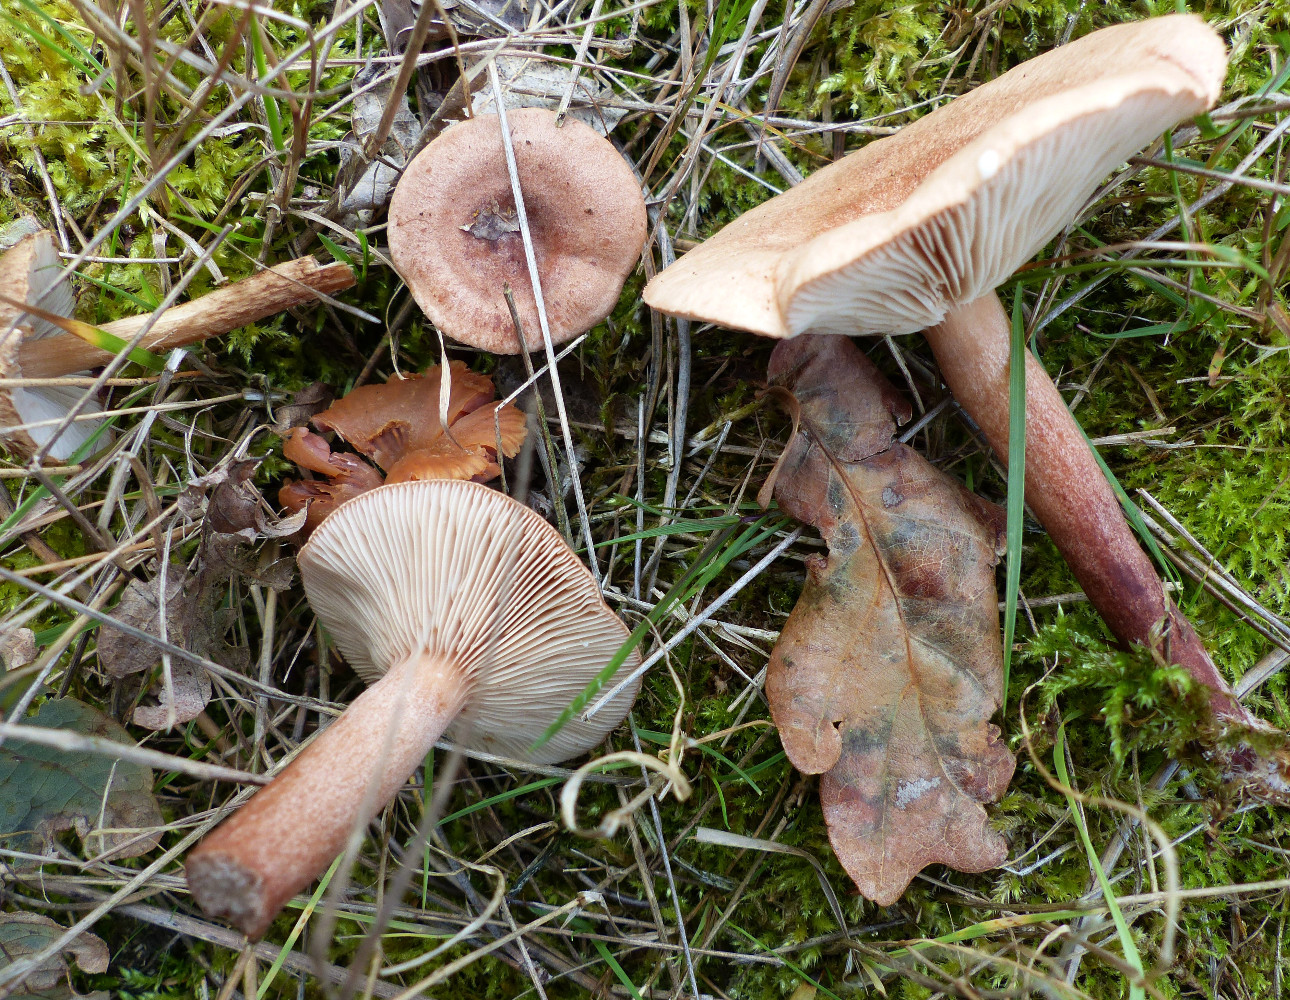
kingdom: Fungi
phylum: Basidiomycota
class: Agaricomycetes
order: Russulales
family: Russulaceae
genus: Lactarius
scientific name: Lactarius quietus
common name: ege-mælkehat
